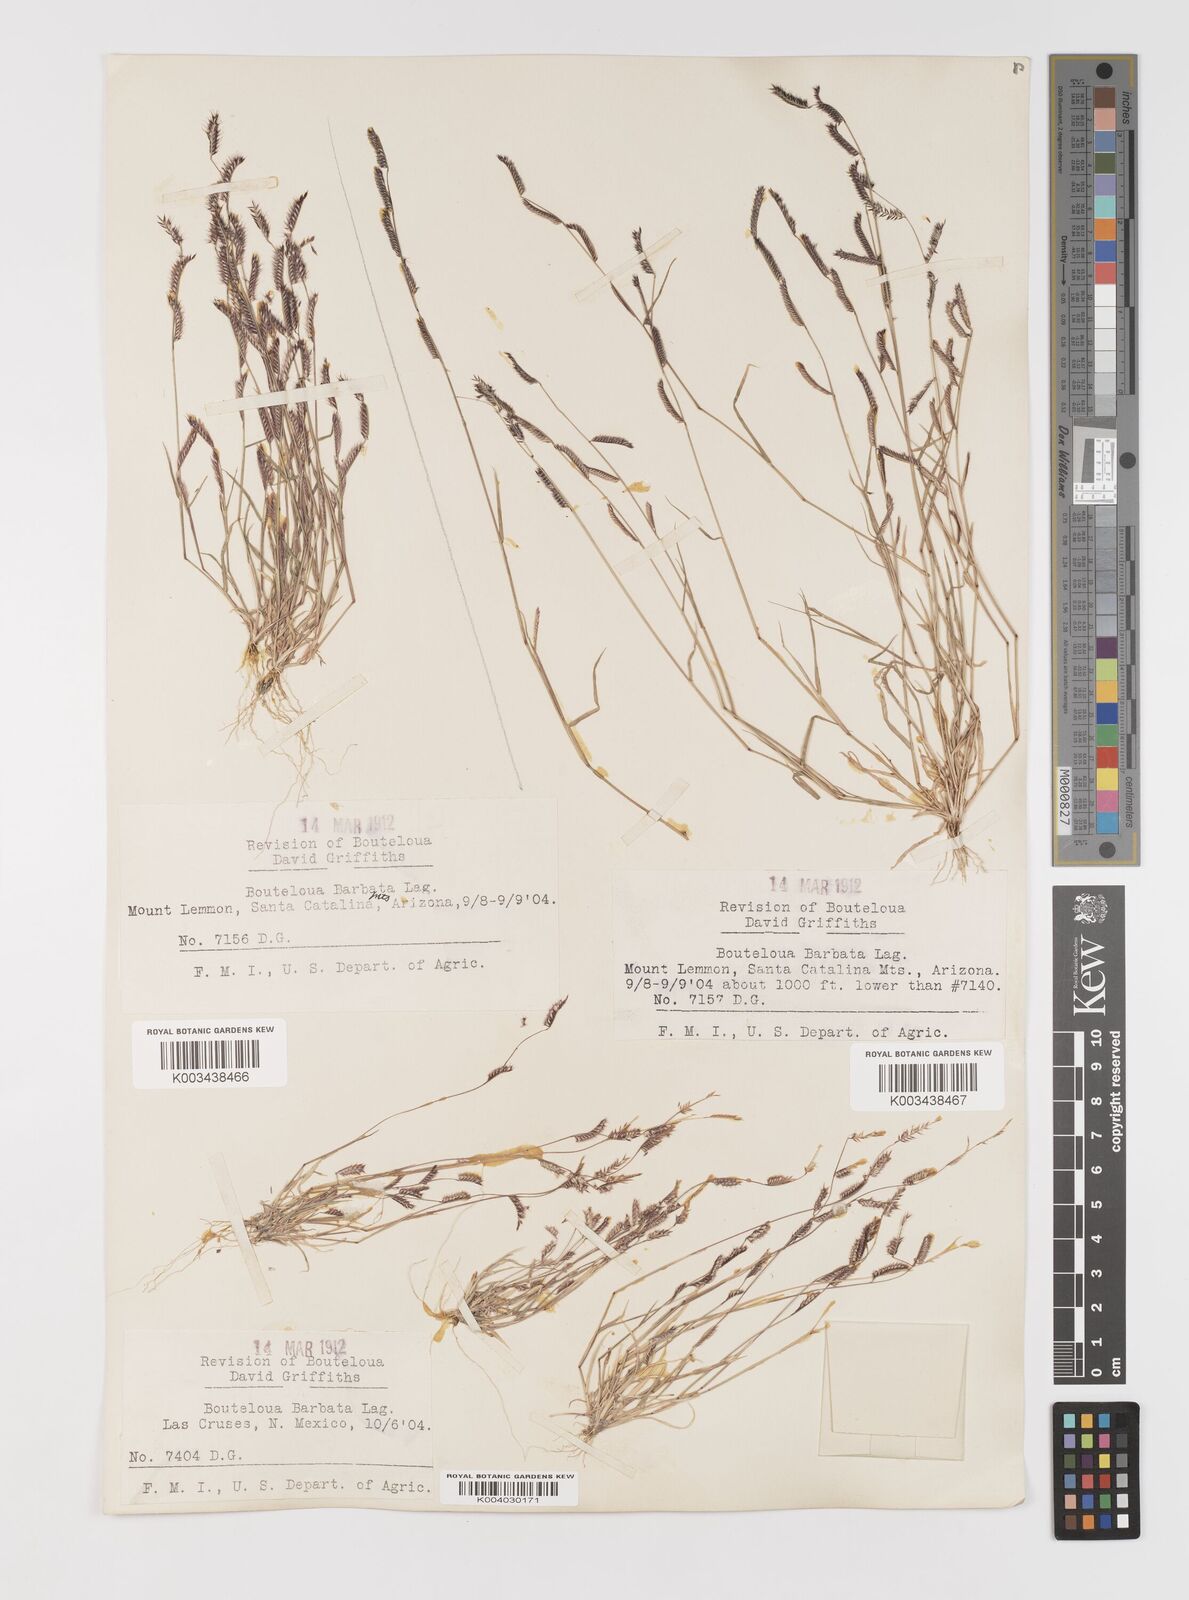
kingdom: Plantae
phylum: Tracheophyta
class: Liliopsida
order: Poales
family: Poaceae
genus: Bouteloua
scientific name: Bouteloua
